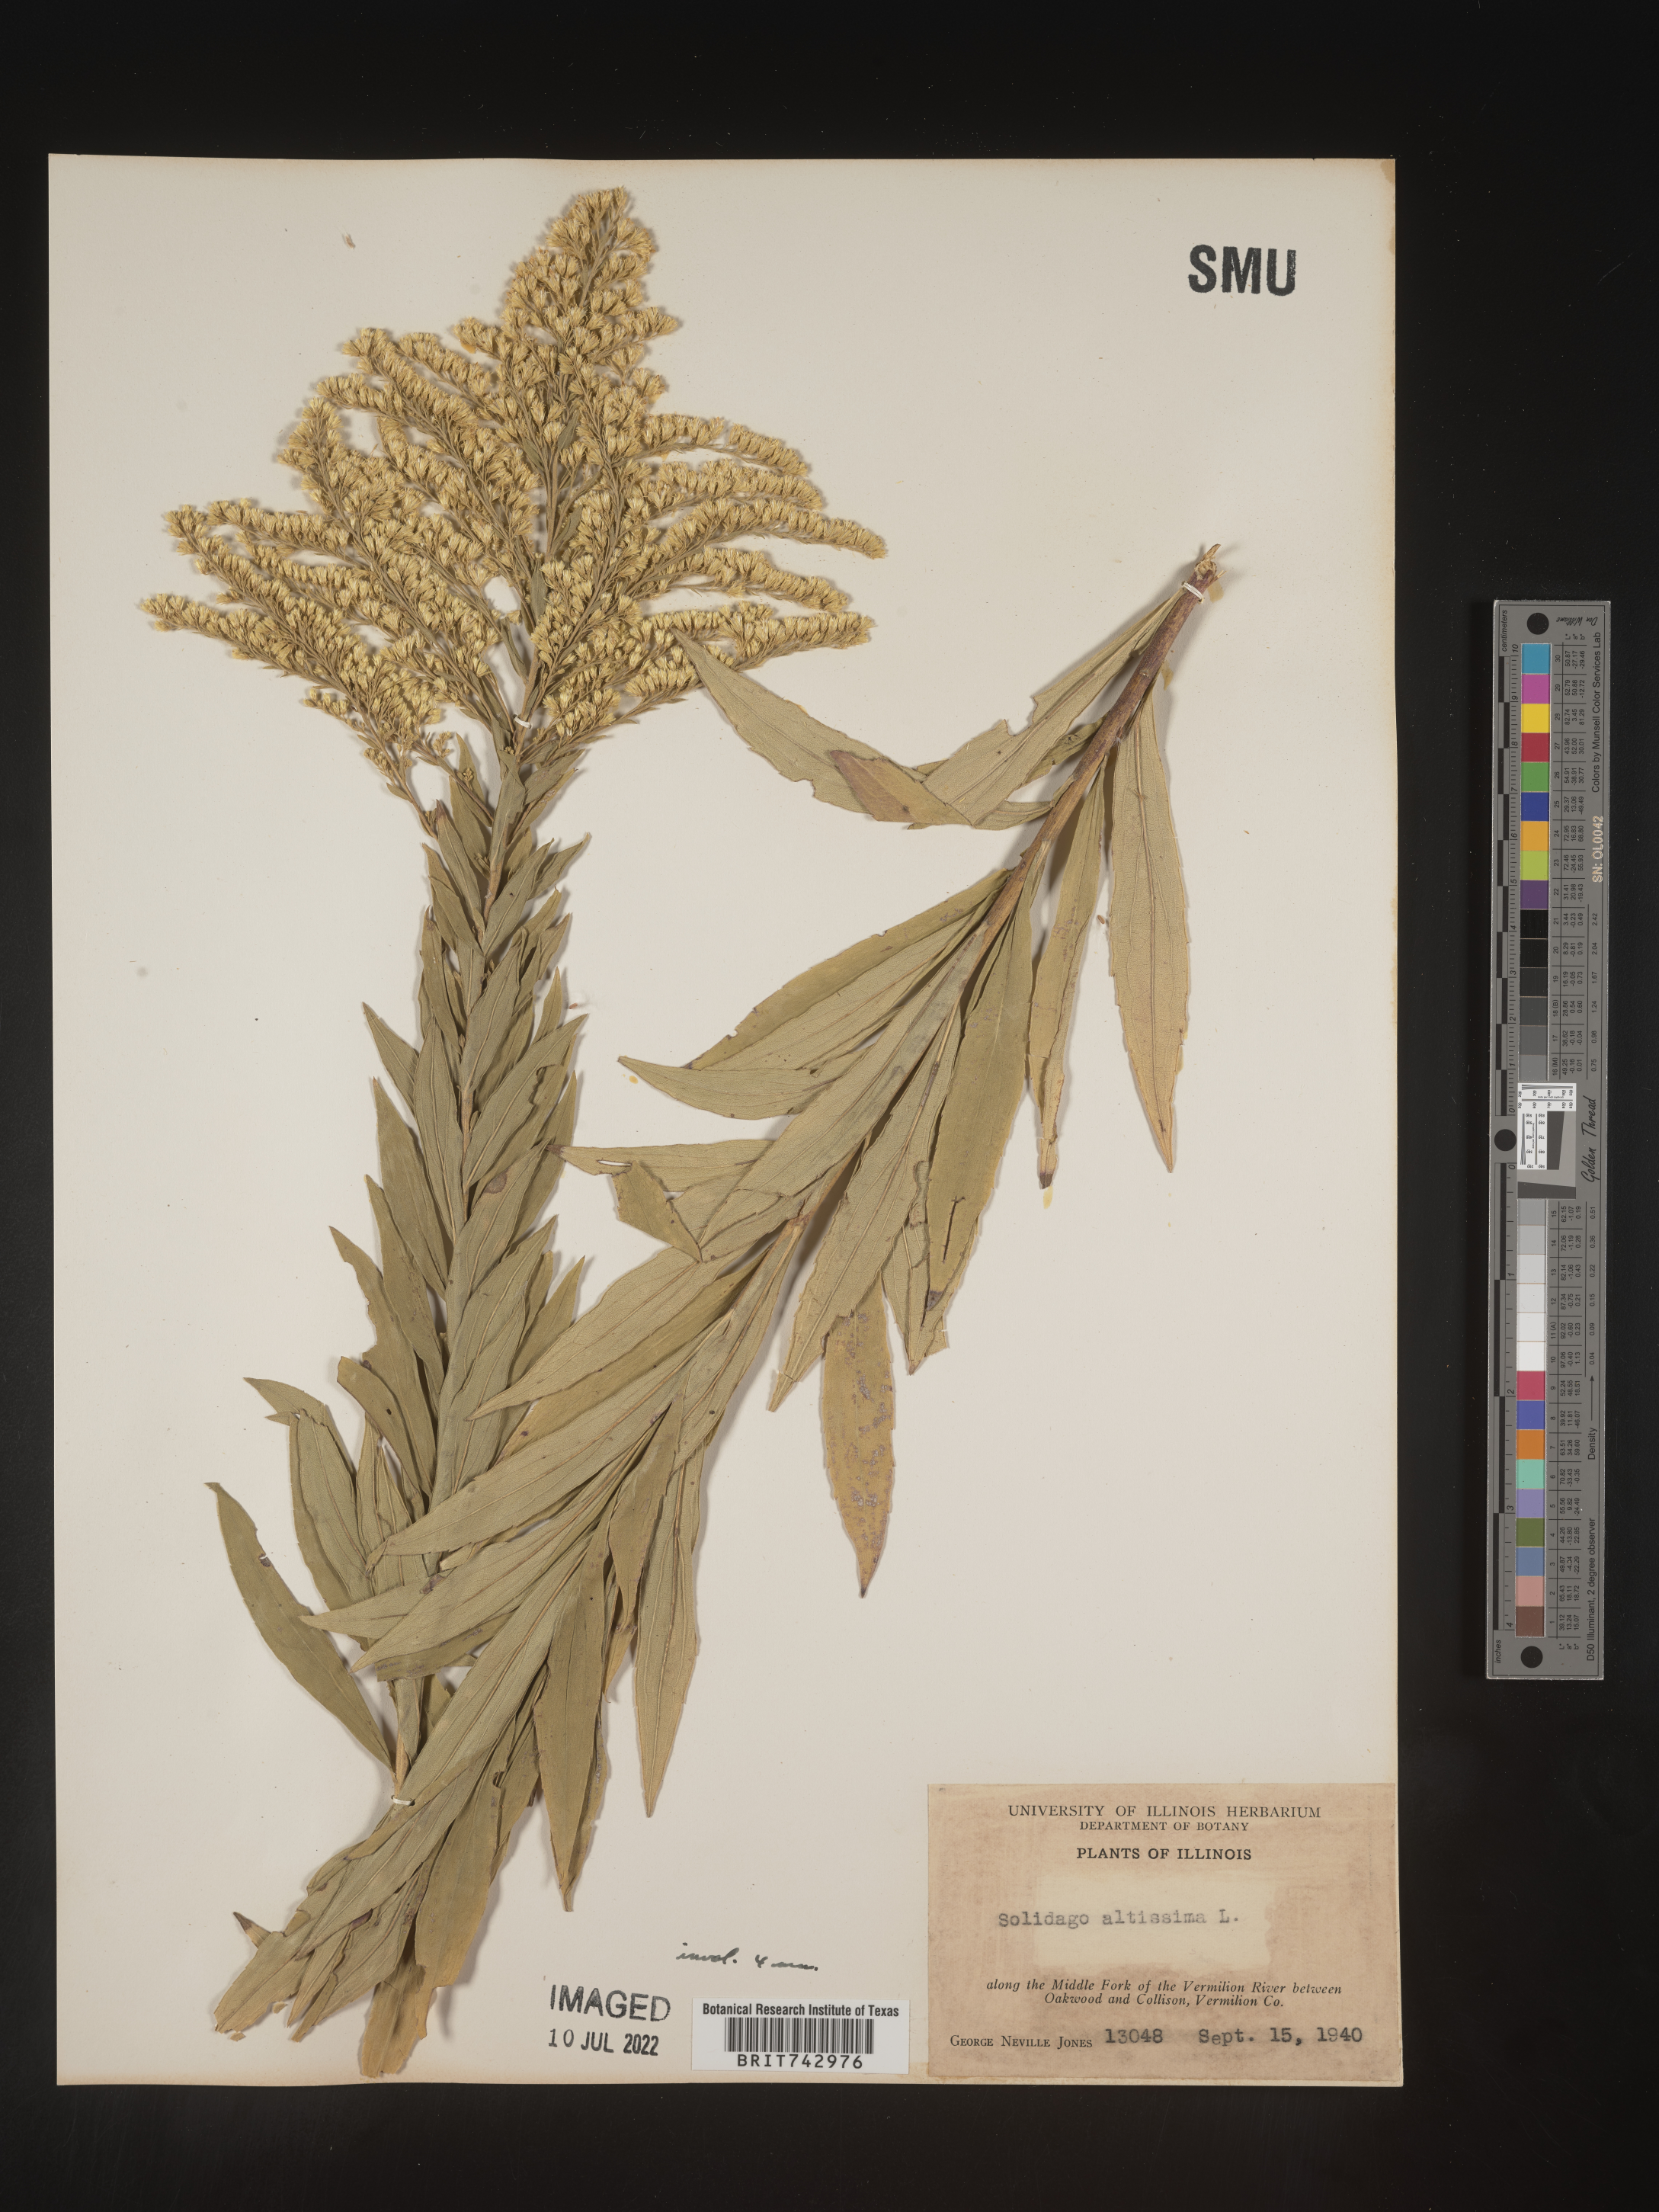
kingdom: Plantae
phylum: Tracheophyta
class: Magnoliopsida
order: Asterales
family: Asteraceae
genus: Solidago
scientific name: Solidago altissima
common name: Late goldenrod
